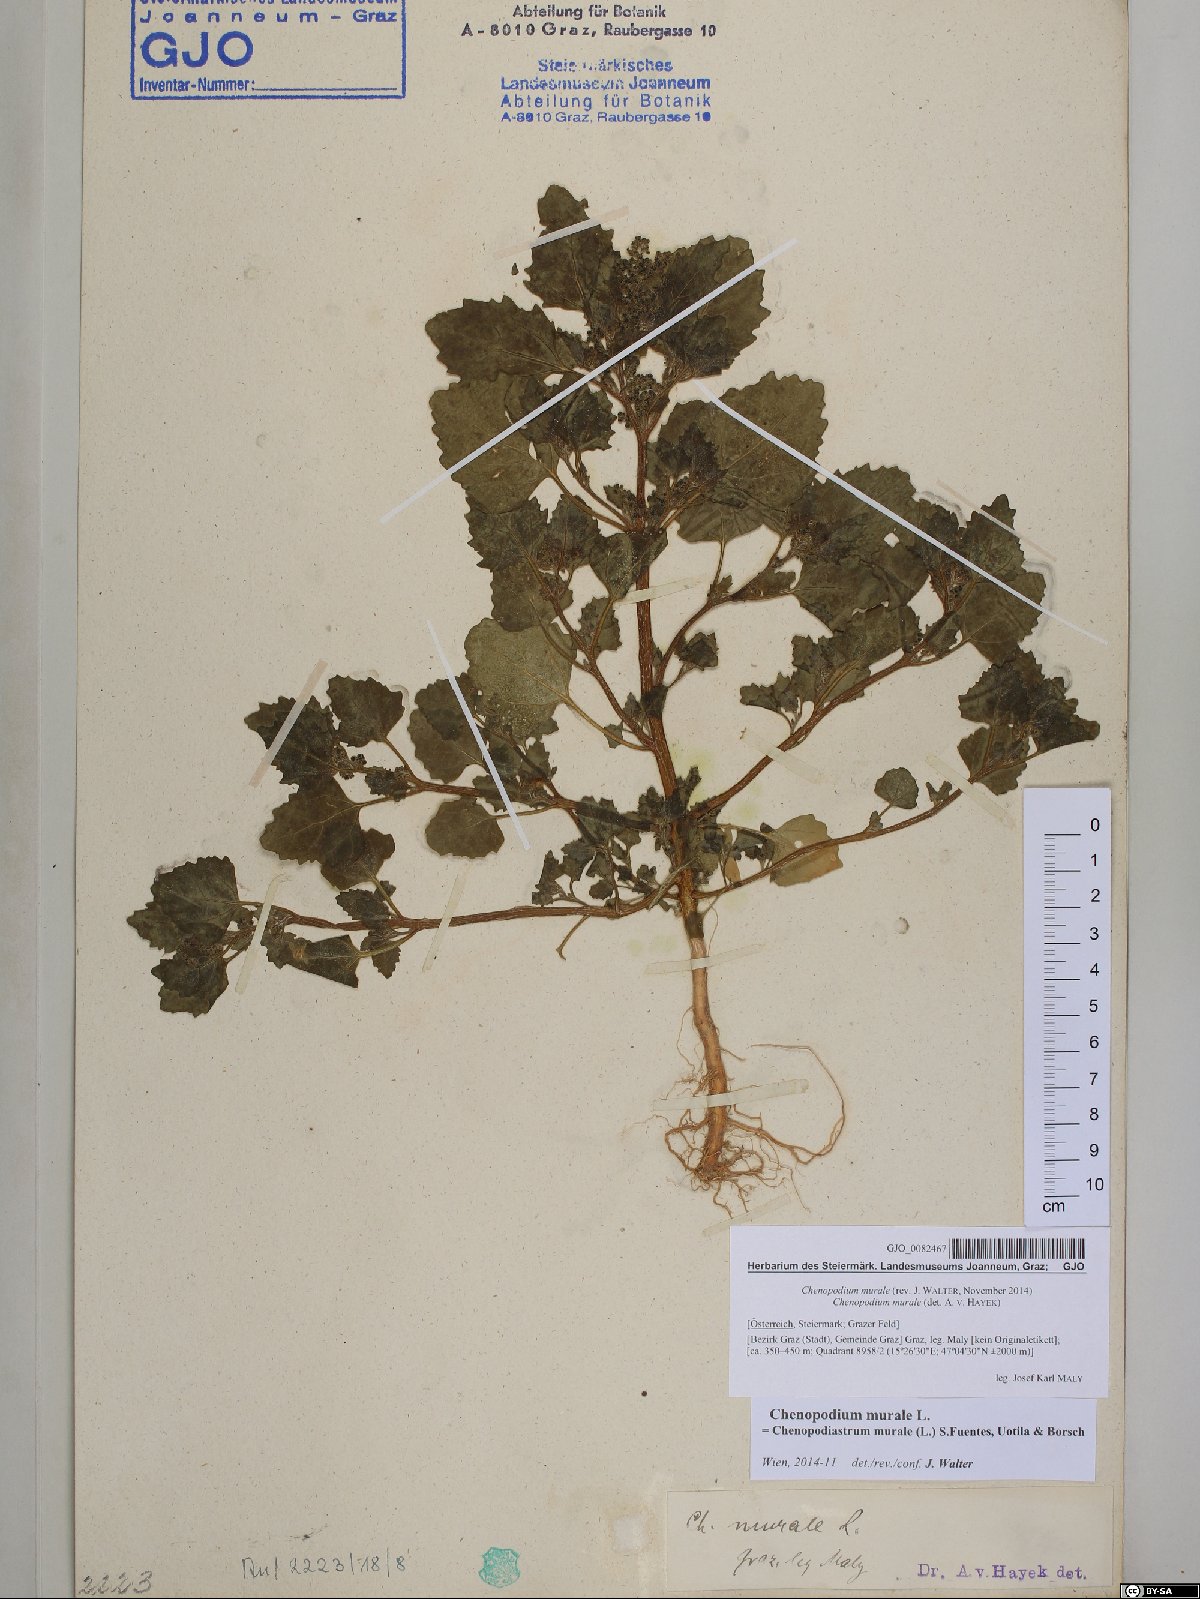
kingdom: Plantae
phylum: Tracheophyta
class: Magnoliopsida
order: Caryophyllales
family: Amaranthaceae
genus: Chenopodiastrum
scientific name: Chenopodiastrum murale
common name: Sowbane
